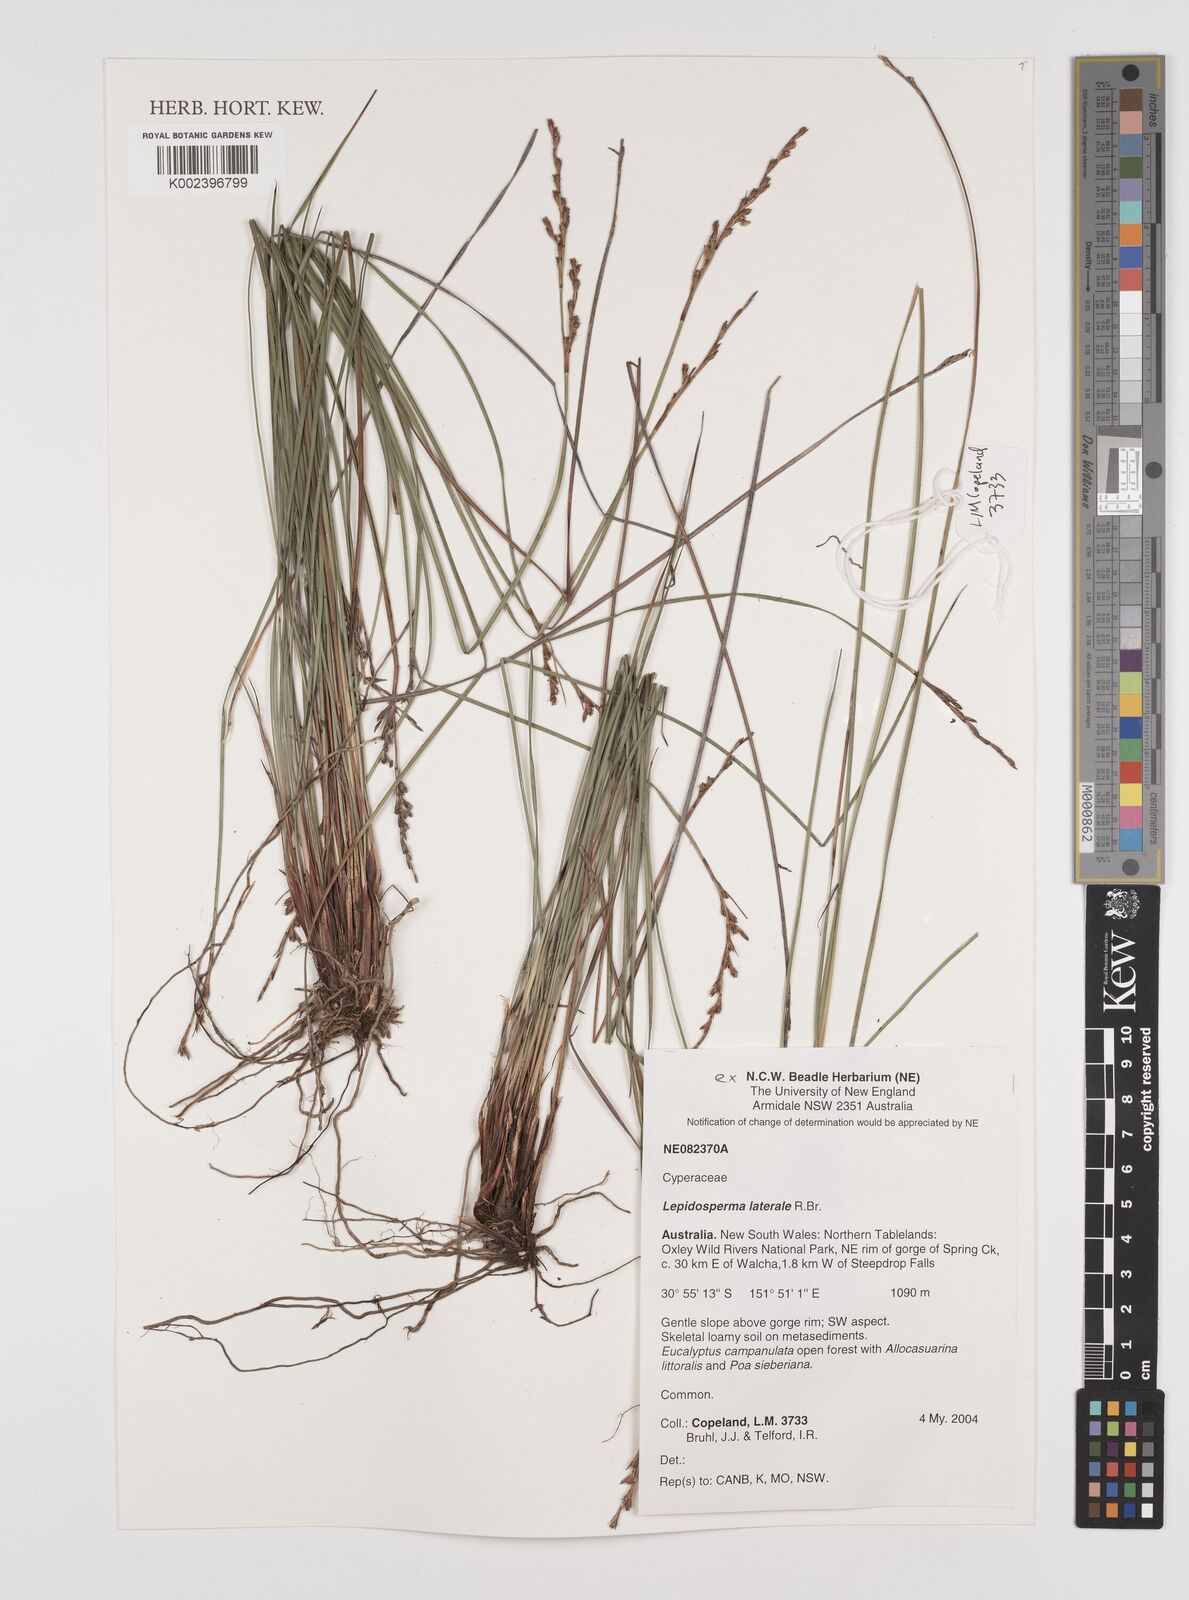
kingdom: Plantae
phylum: Tracheophyta
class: Liliopsida
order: Poales
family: Cyperaceae
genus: Lepidosperma
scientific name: Lepidosperma laterale
